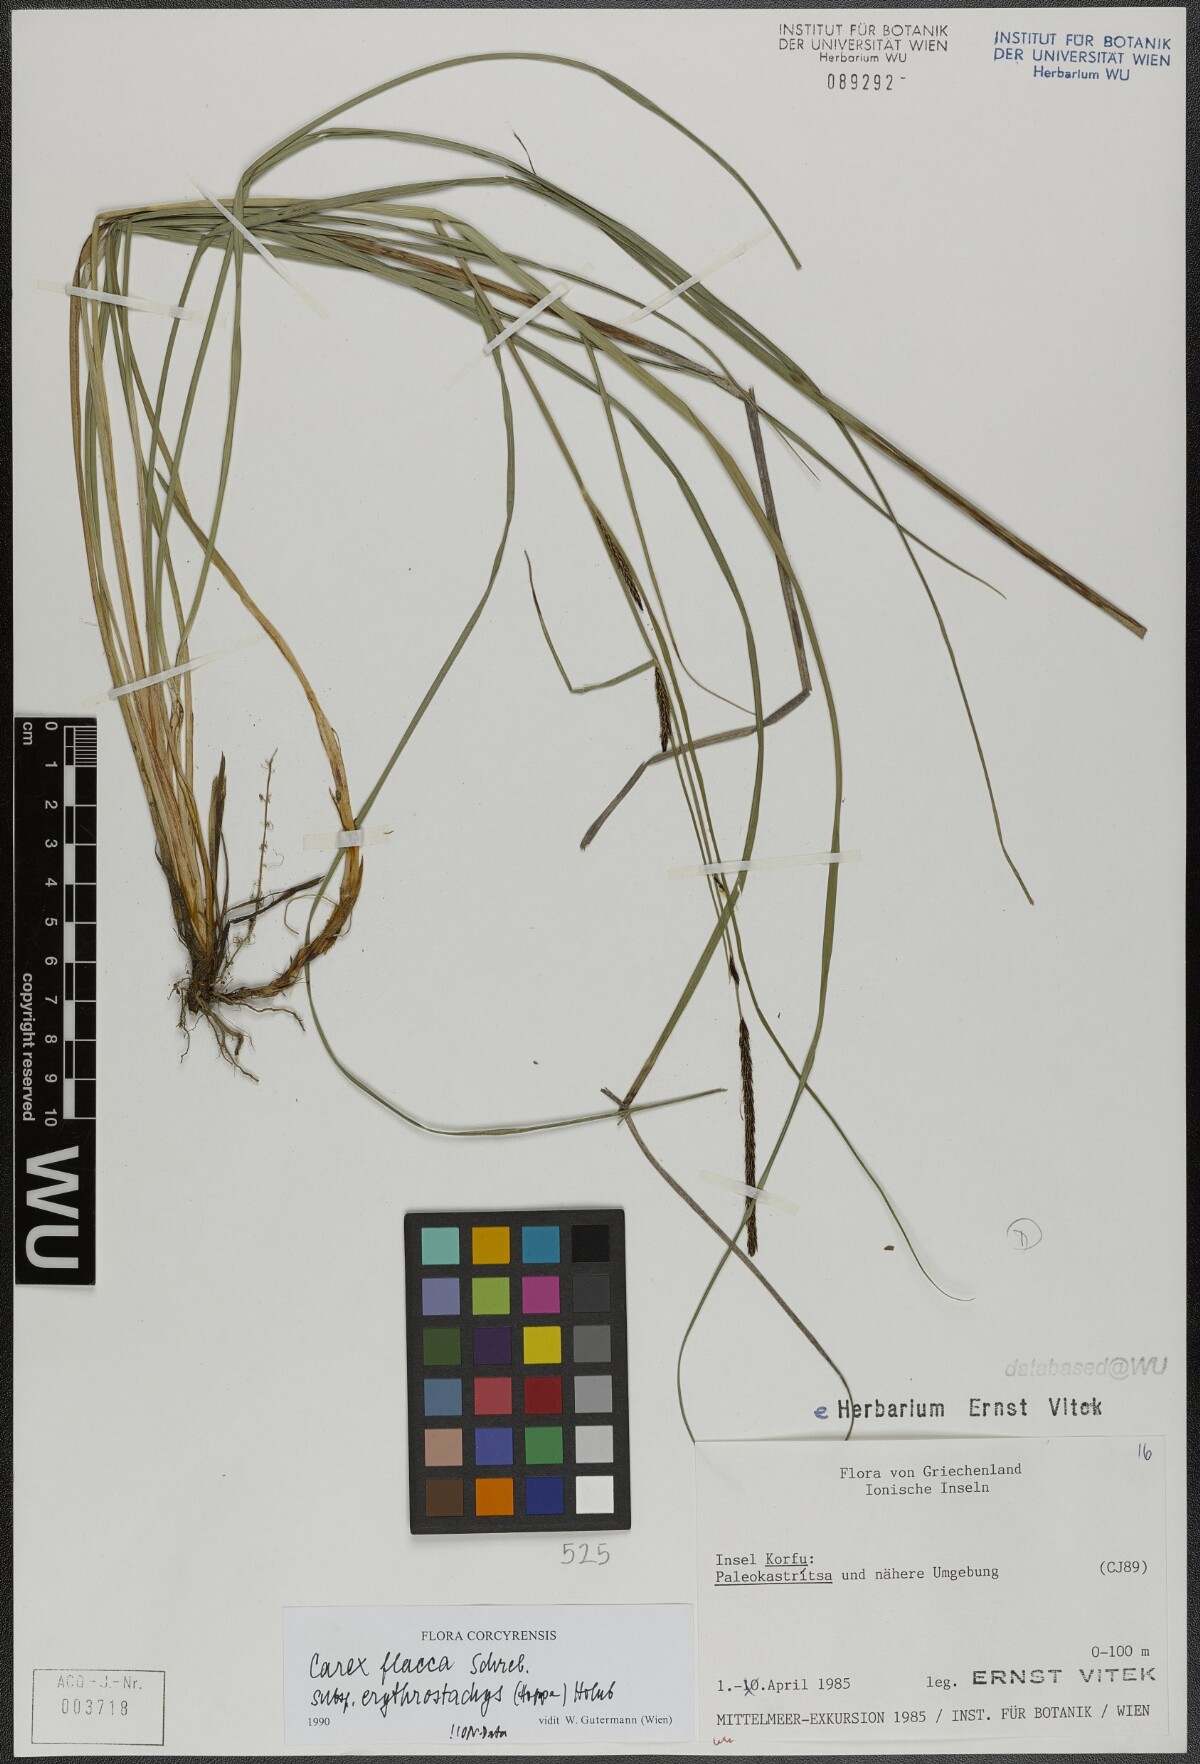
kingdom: Plantae
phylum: Tracheophyta
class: Liliopsida
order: Poales
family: Cyperaceae
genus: Carex
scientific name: Carex flacca
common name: Glaucous sedge
